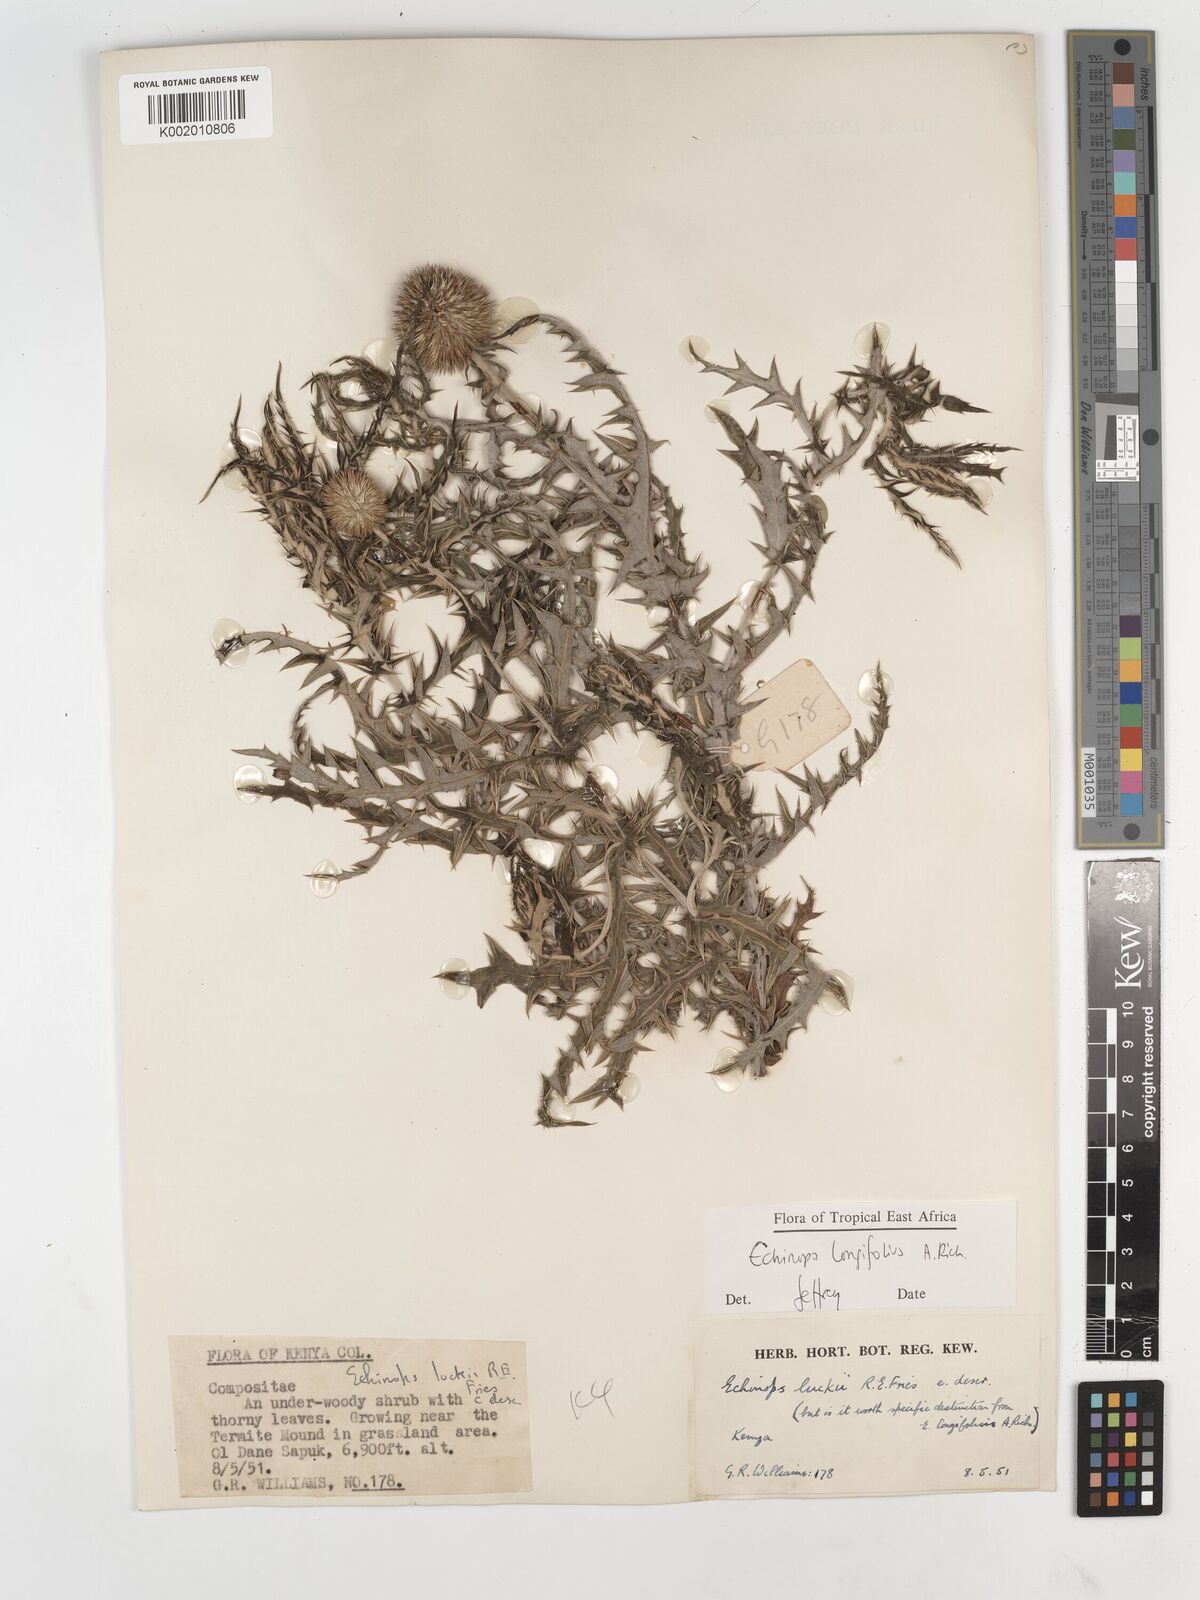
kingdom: Plantae
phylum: Tracheophyta
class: Magnoliopsida
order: Asterales
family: Asteraceae
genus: Echinops
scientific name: Echinops longifolius
